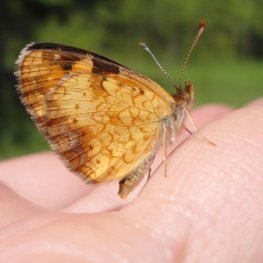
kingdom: Animalia
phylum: Arthropoda
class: Insecta
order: Lepidoptera
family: Nymphalidae
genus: Phyciodes
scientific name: Phyciodes tharos
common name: Northern Crescent
